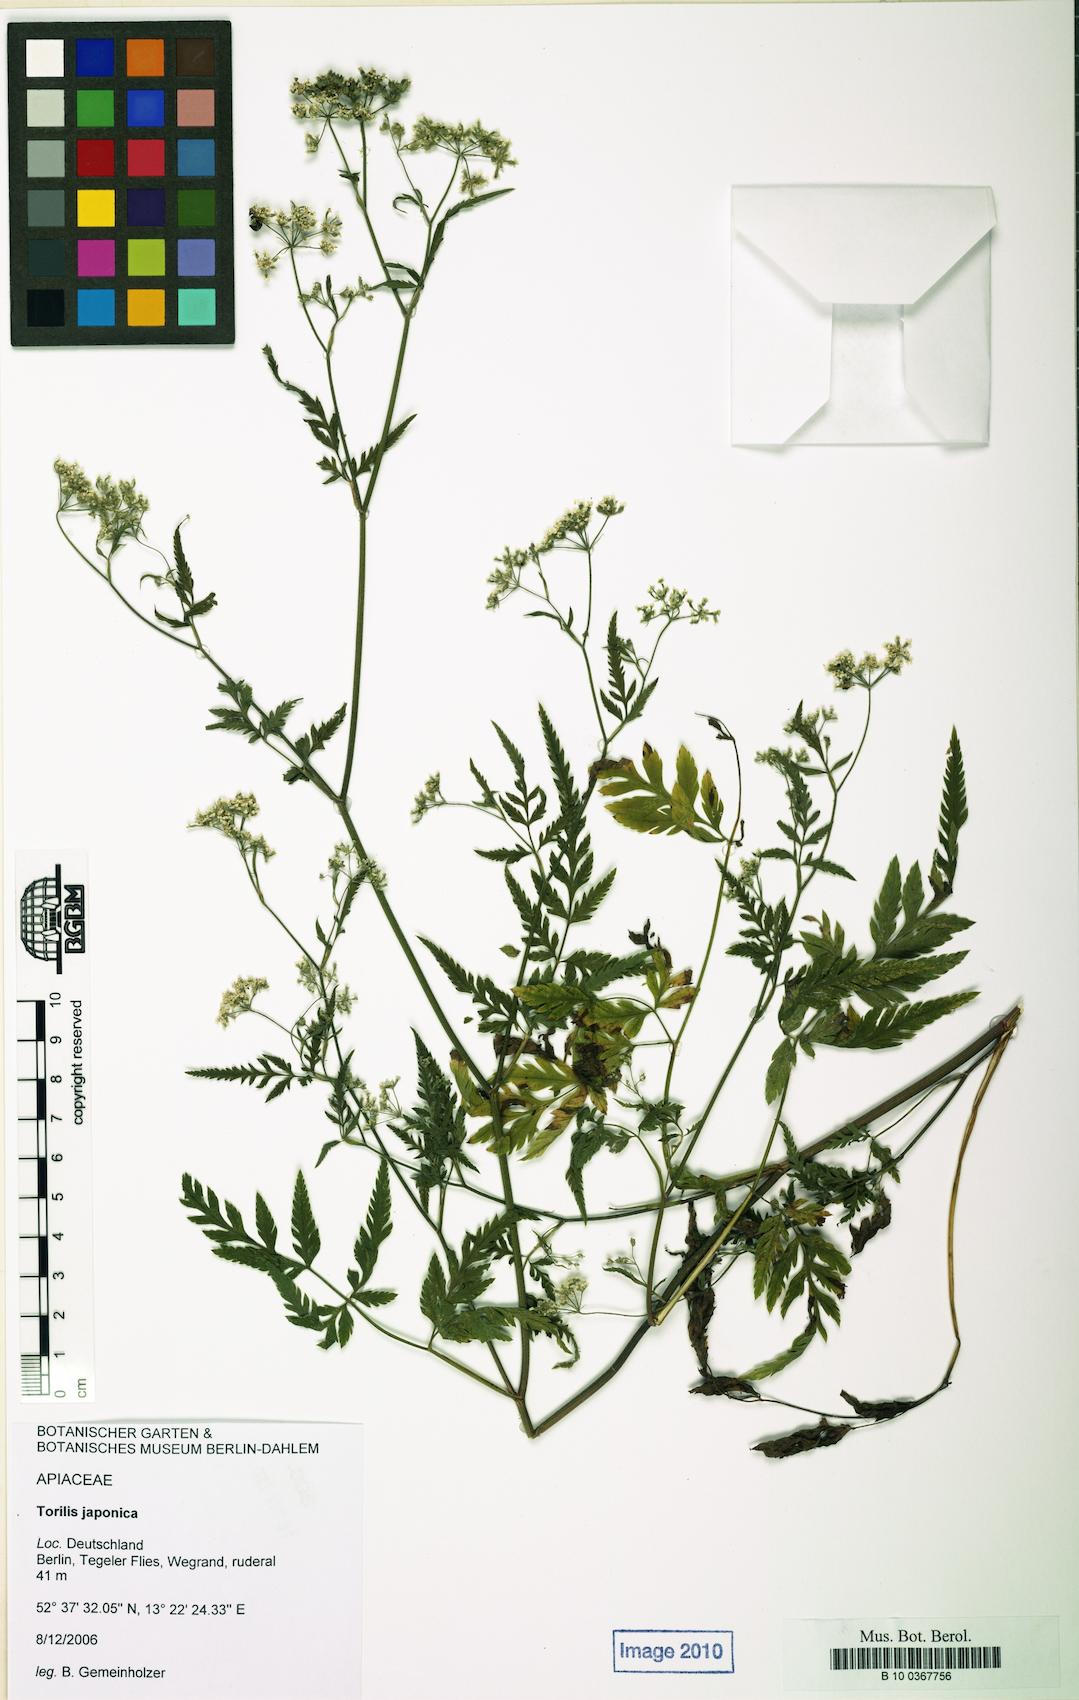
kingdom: Plantae
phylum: Tracheophyta
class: Magnoliopsida
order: Apiales
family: Apiaceae
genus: Torilis
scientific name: Torilis japonica
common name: Upright hedge-parsley
